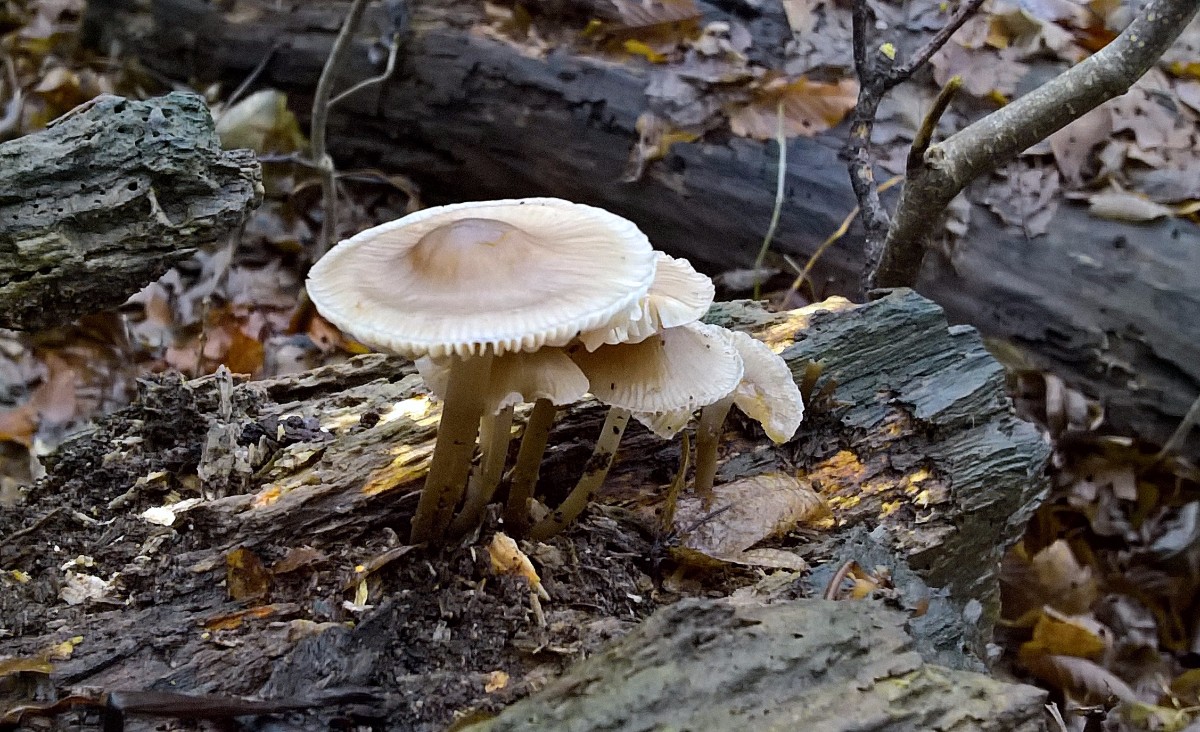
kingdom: Fungi
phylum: Basidiomycota
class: Agaricomycetes
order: Agaricales
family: Mycenaceae
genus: Mycena
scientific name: Mycena galericulata
